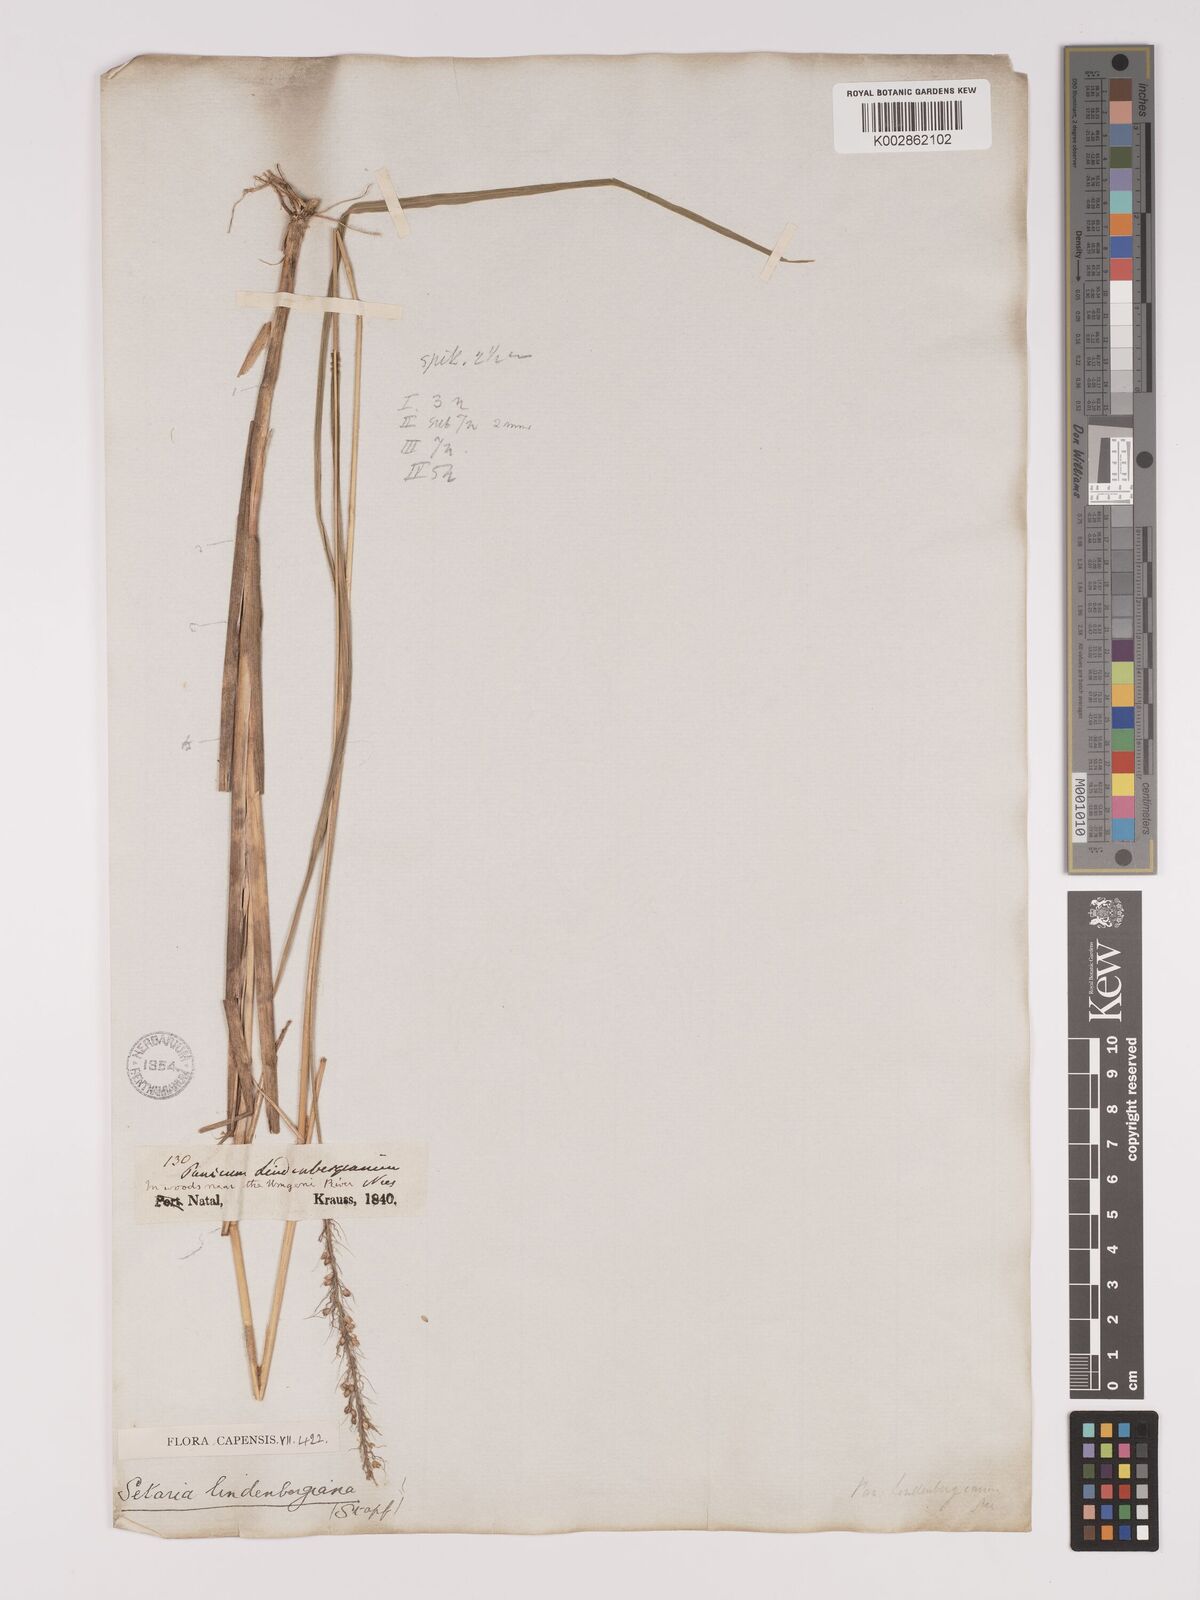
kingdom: Plantae
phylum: Tracheophyta
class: Liliopsida
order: Poales
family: Poaceae
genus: Setaria
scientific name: Setaria lindenbergiana
